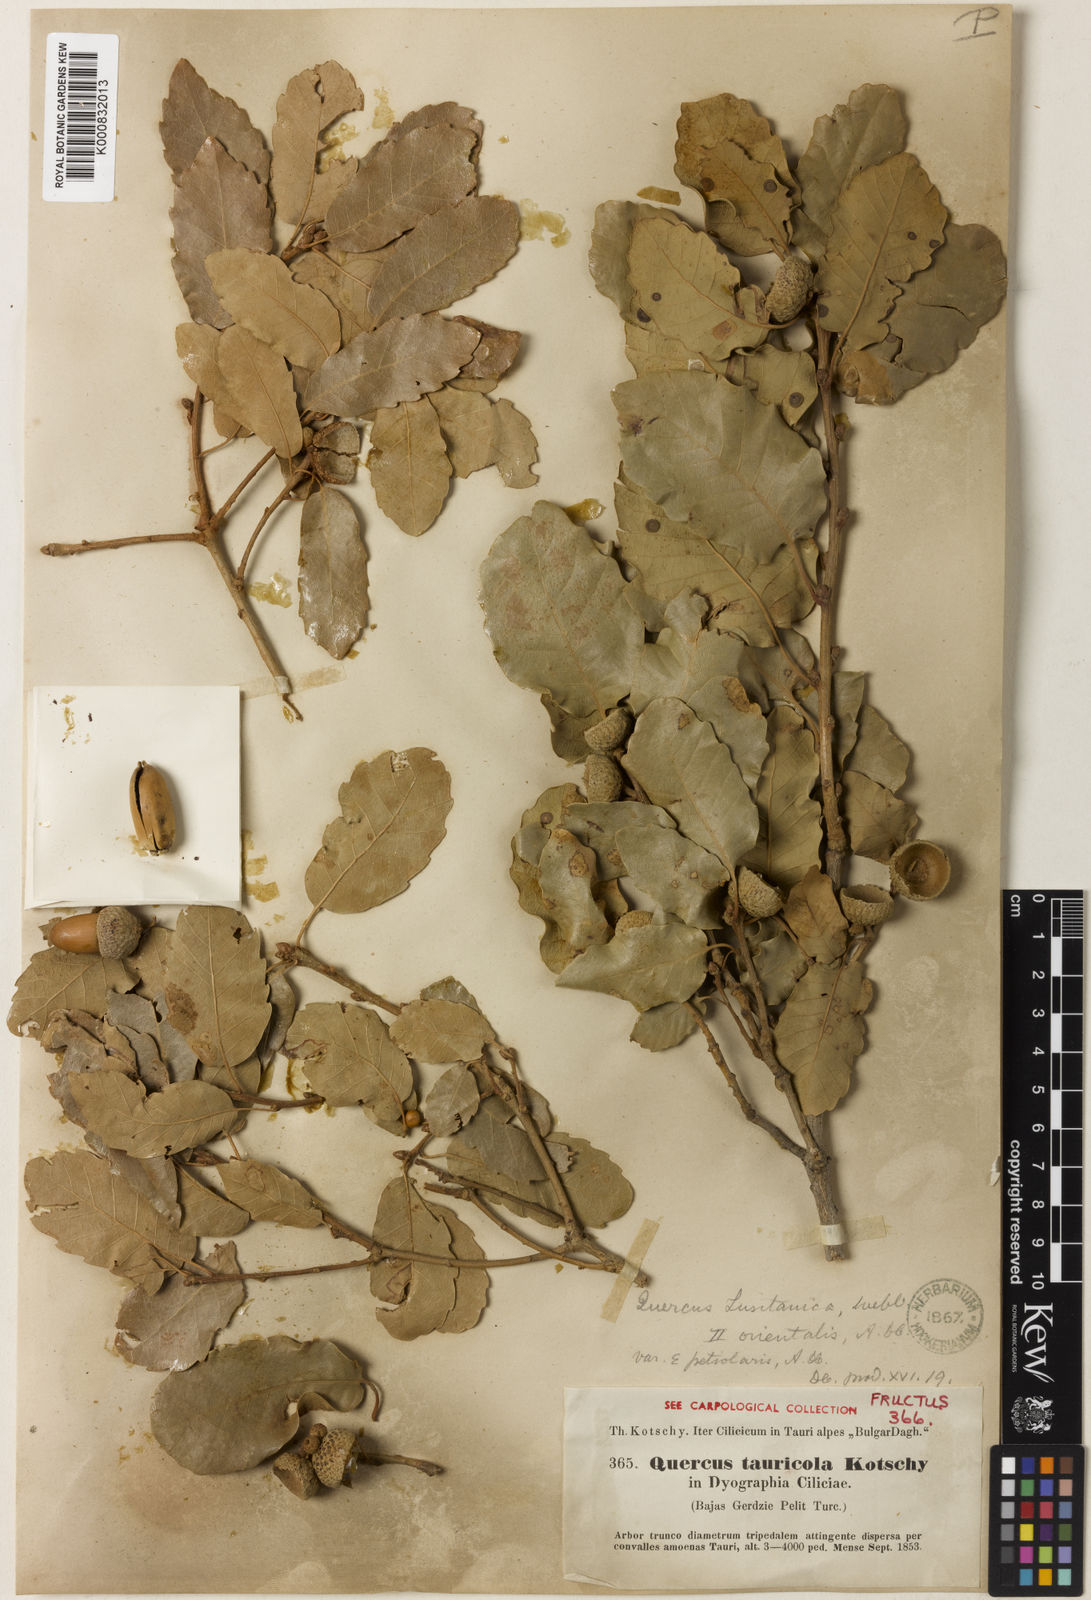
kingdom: Plantae
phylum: Tracheophyta
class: Magnoliopsida
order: Fagales
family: Fagaceae
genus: Quercus
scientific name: Quercus infectoria
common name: Aleppo oak
